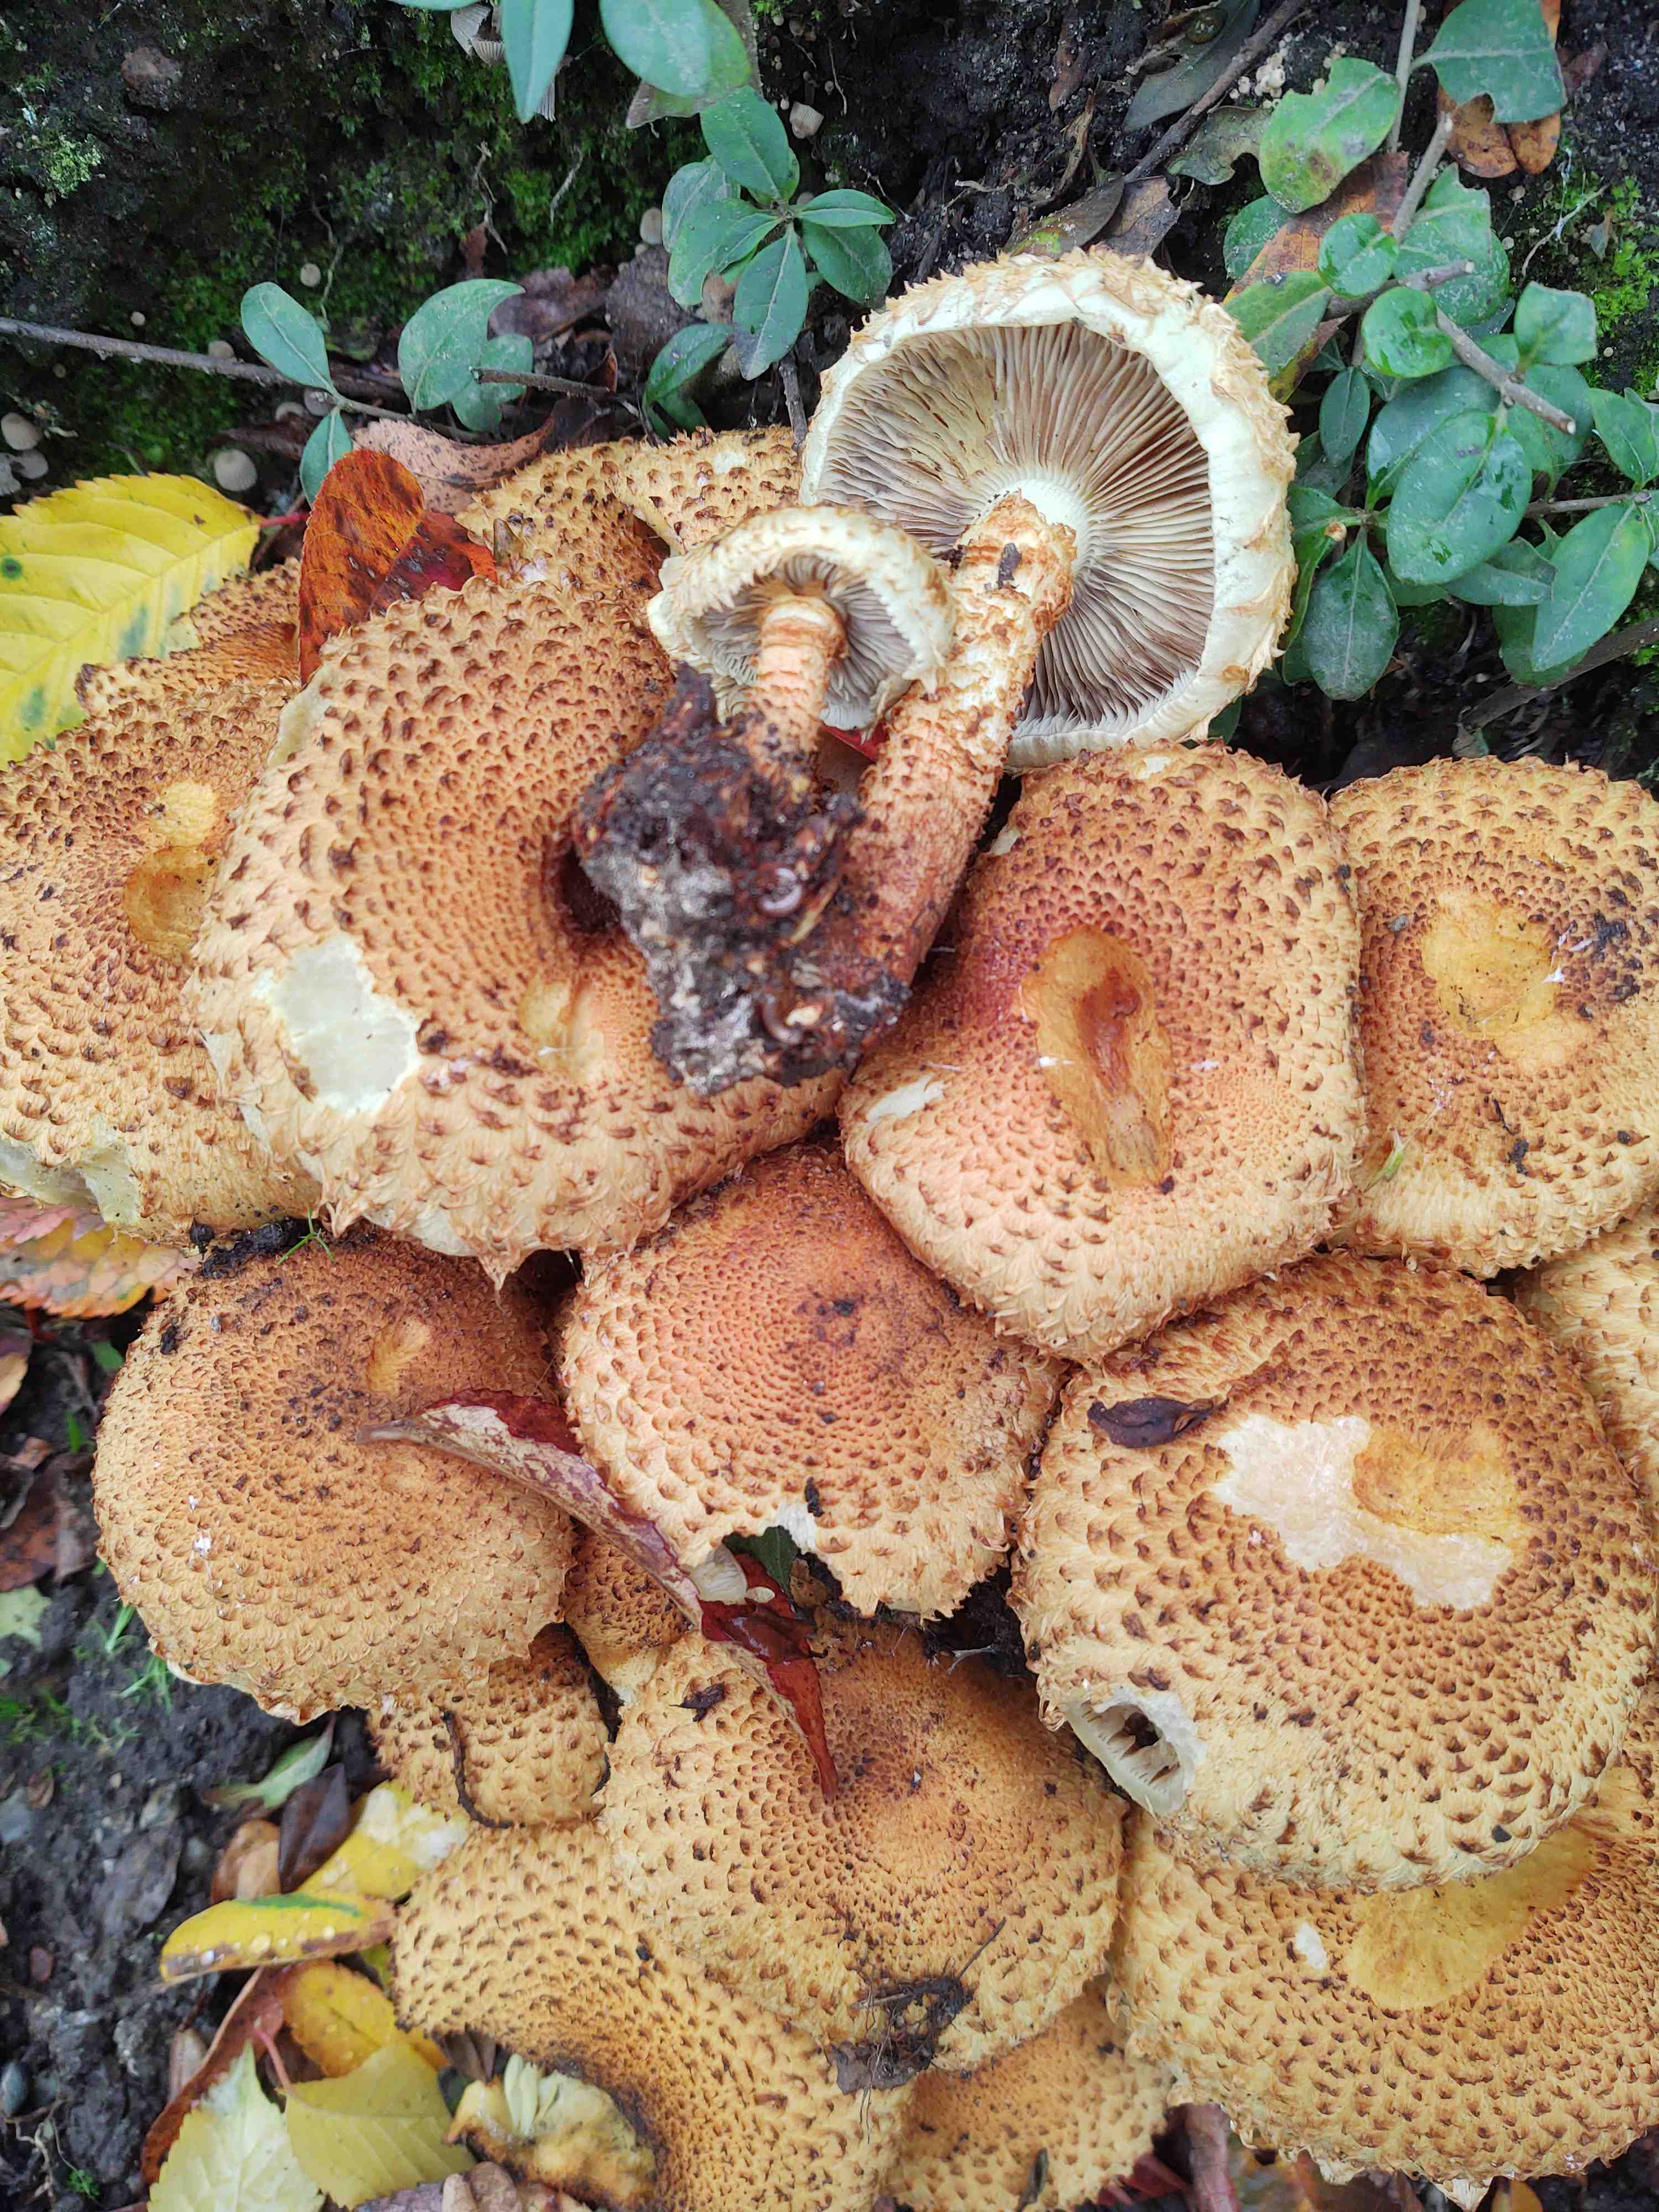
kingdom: Fungi
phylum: Basidiomycota
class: Agaricomycetes
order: Agaricales
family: Strophariaceae
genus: Pholiota
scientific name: Pholiota squarrosa
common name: krumskællet skælhat
